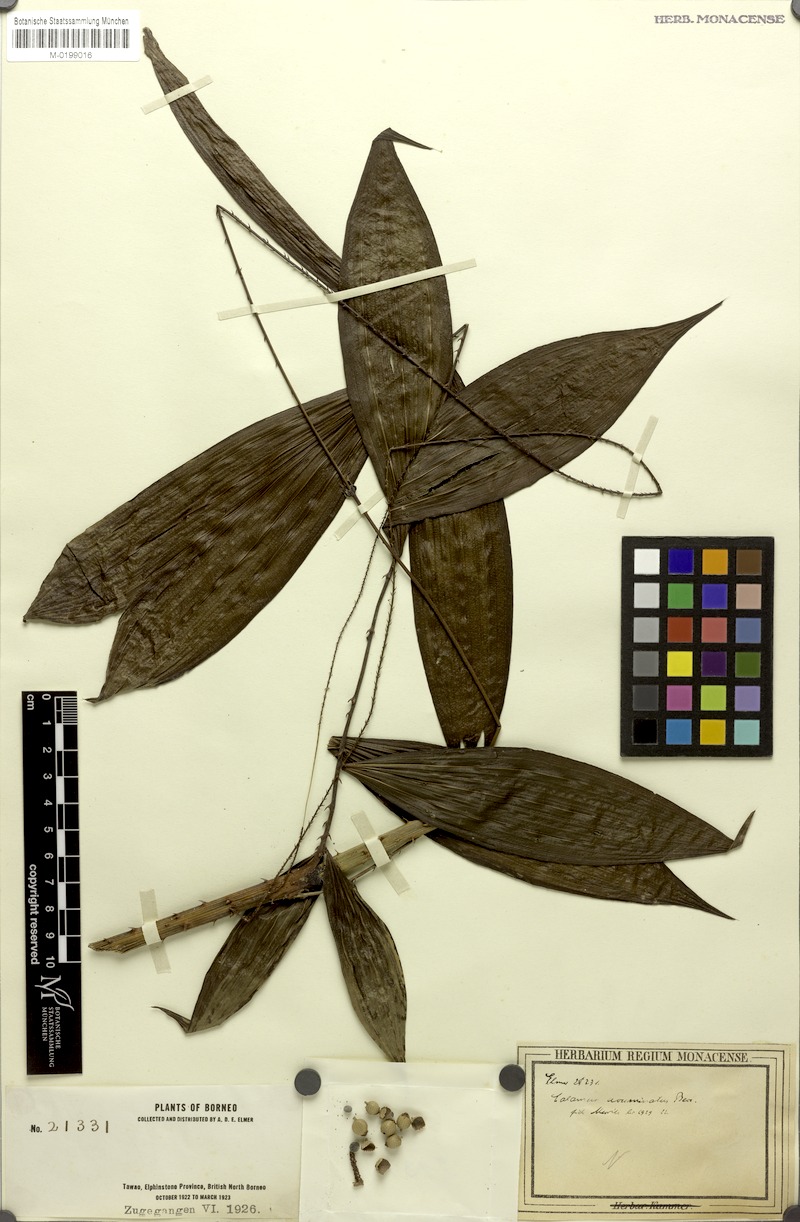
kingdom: Plantae
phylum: Tracheophyta
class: Liliopsida
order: Arecales
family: Arecaceae
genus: Calamus
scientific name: Calamus javensis
